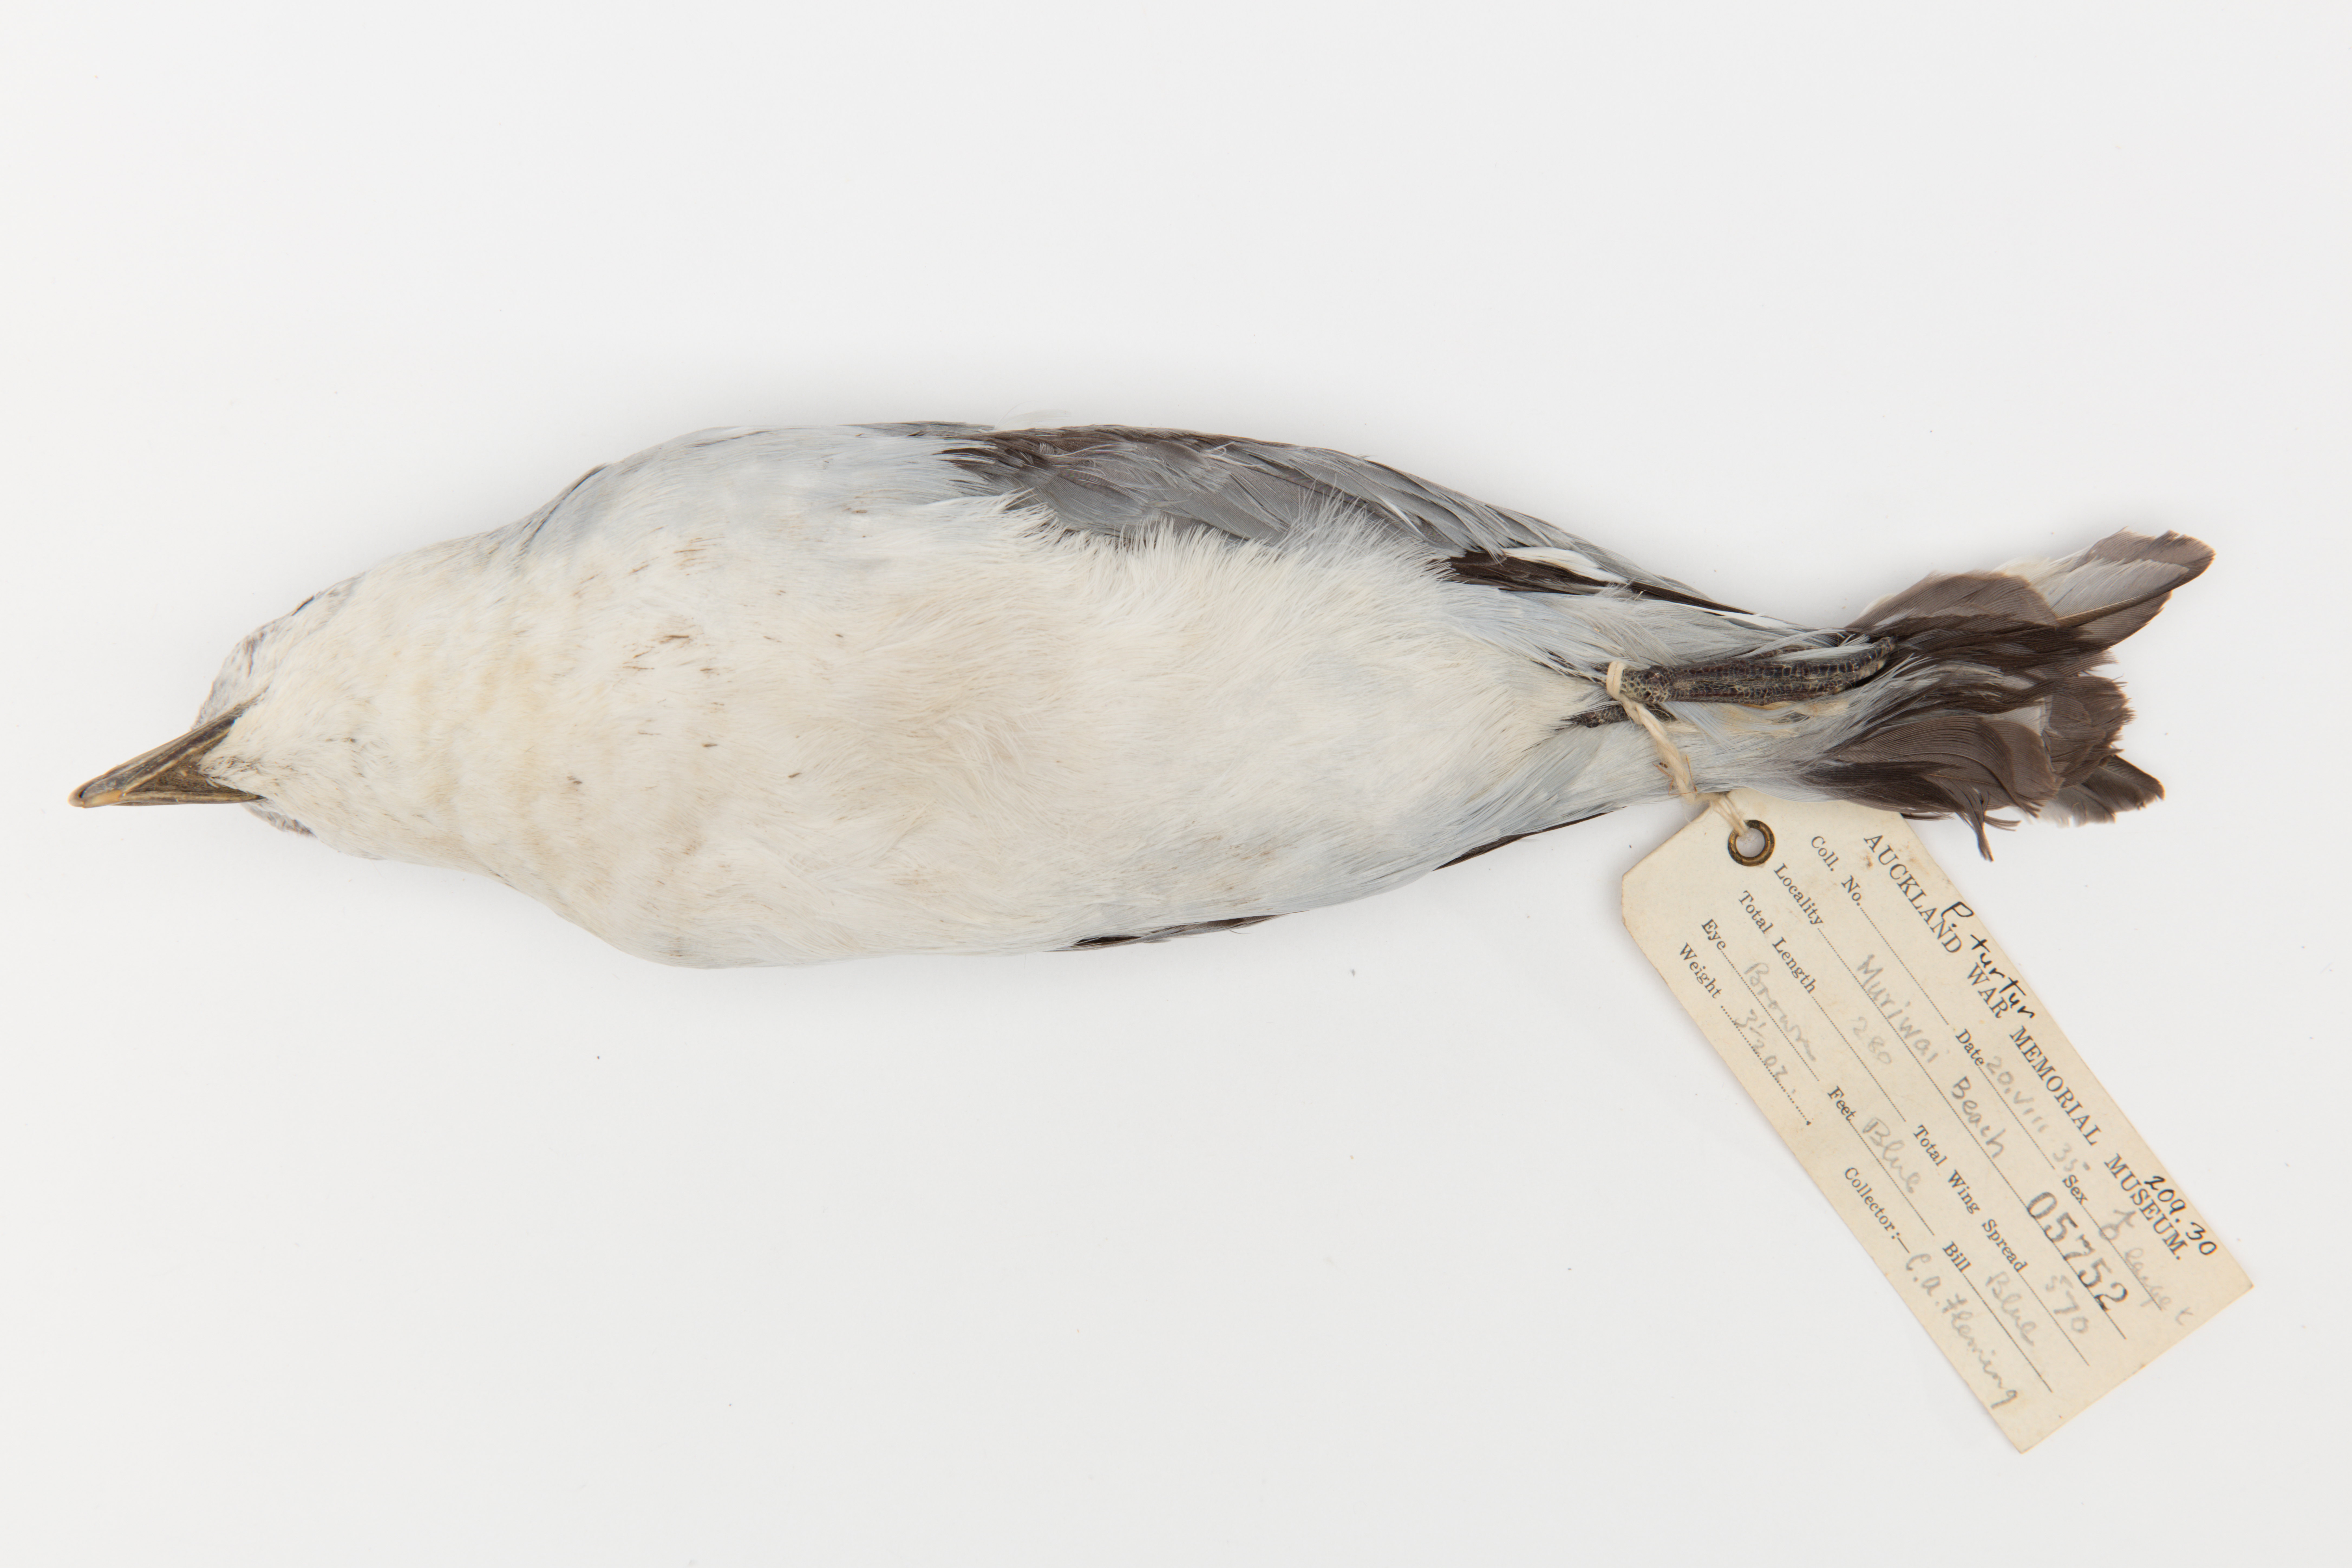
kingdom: Animalia
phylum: Chordata
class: Aves
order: Procellariiformes
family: Procellariidae
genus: Pachyptila
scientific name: Pachyptila turtur
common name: Fairy prion
